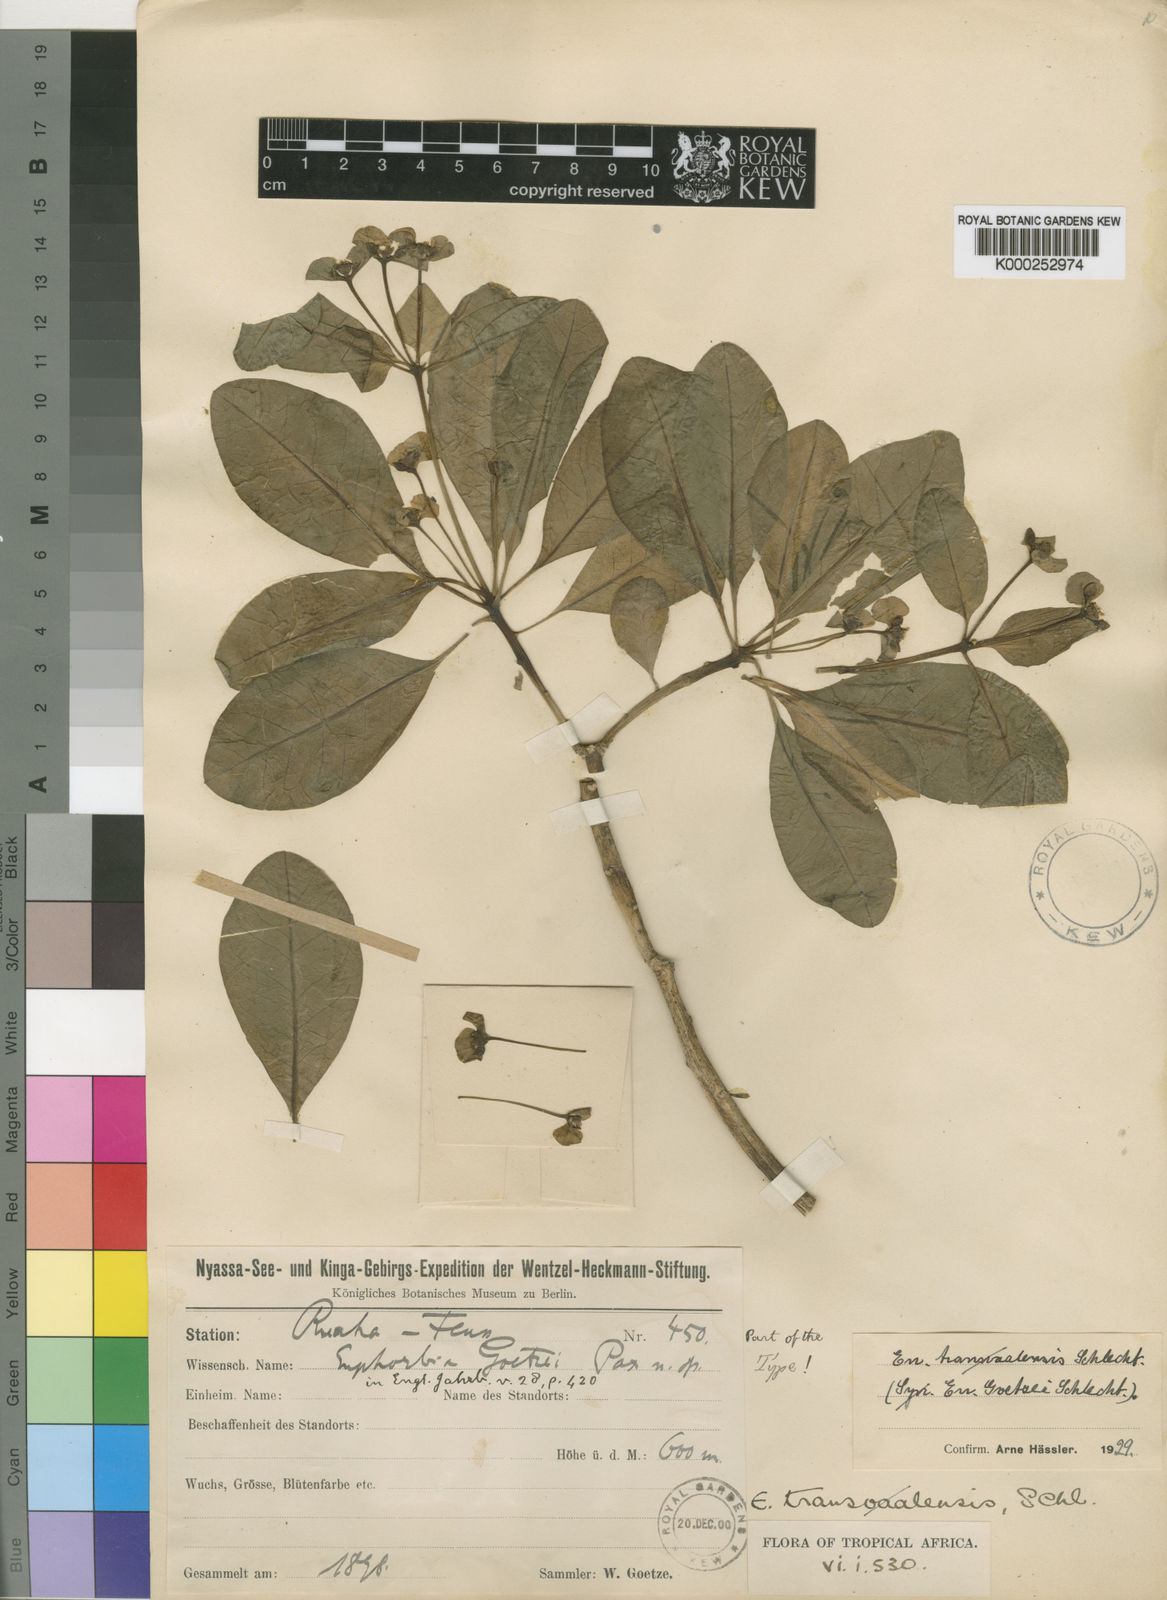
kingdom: Plantae
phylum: Tracheophyta
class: Magnoliopsida
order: Malpighiales
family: Euphorbiaceae
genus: Euphorbia
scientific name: Euphorbia transvaalensis
